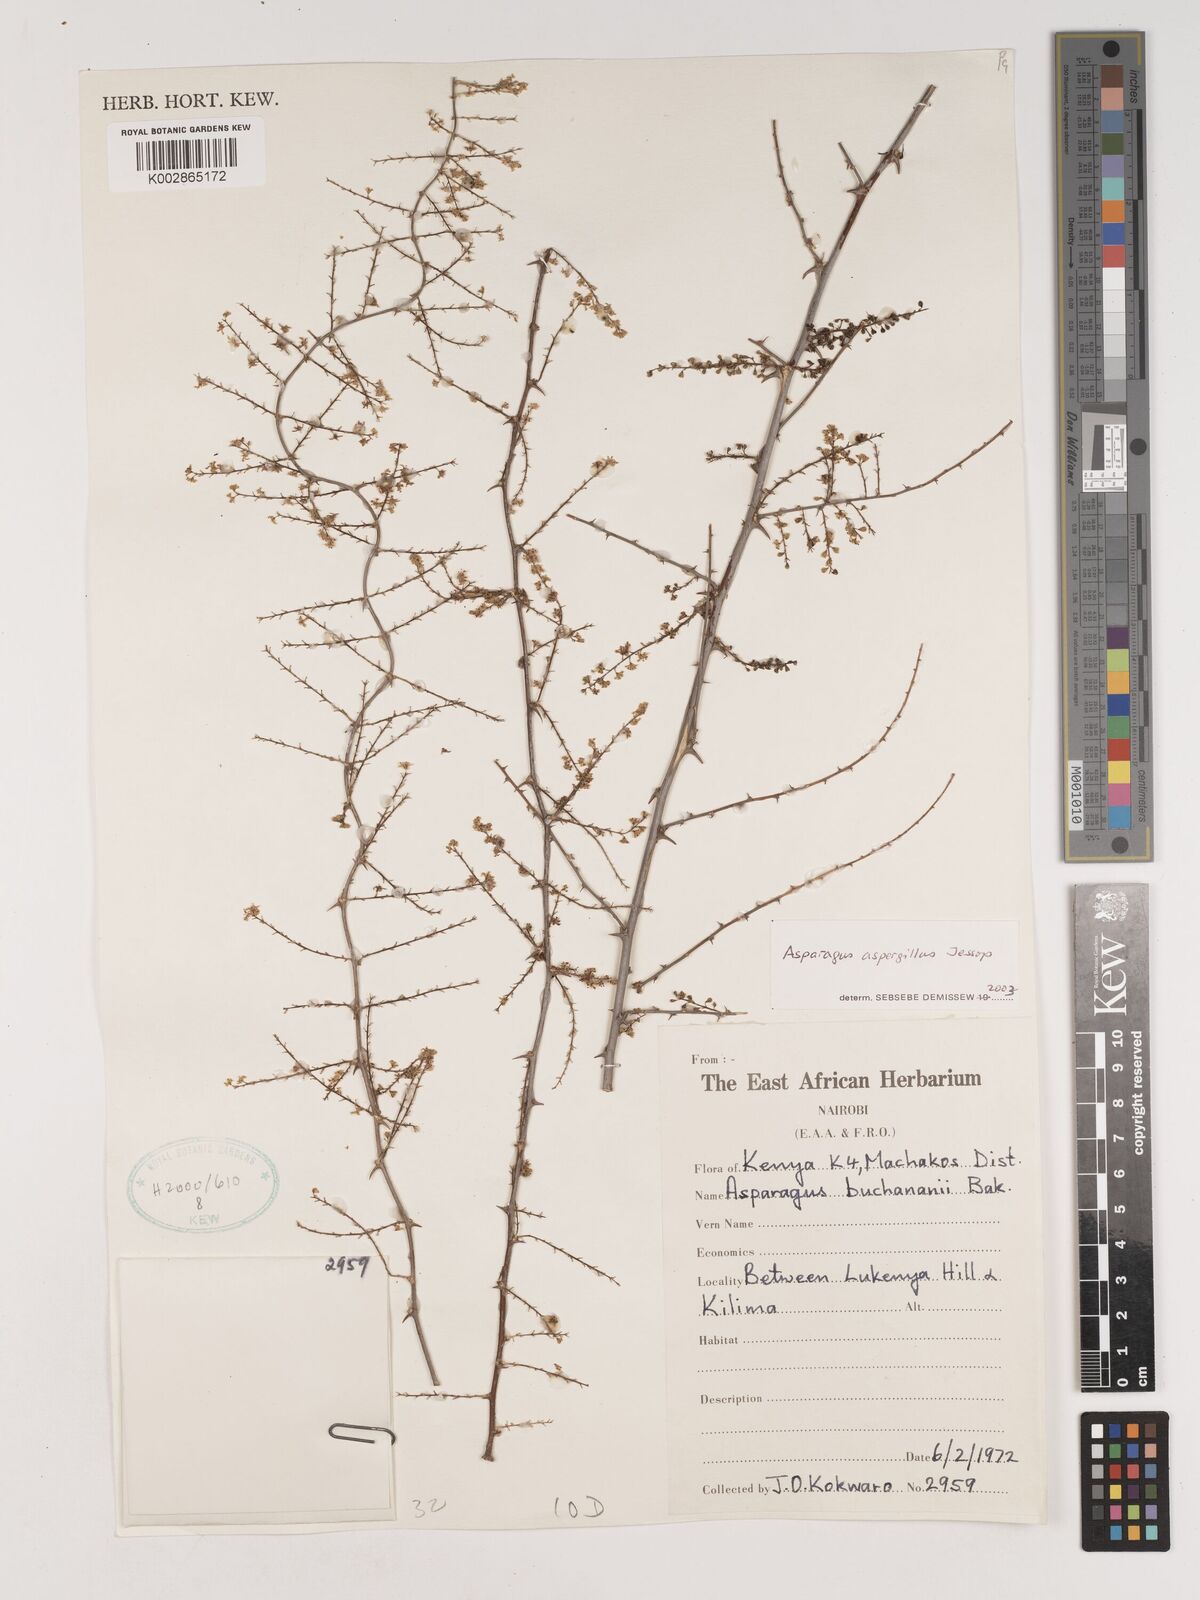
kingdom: Plantae
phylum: Tracheophyta
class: Liliopsida
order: Asparagales
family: Asparagaceae
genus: Asparagus
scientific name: Asparagus aspergillus
